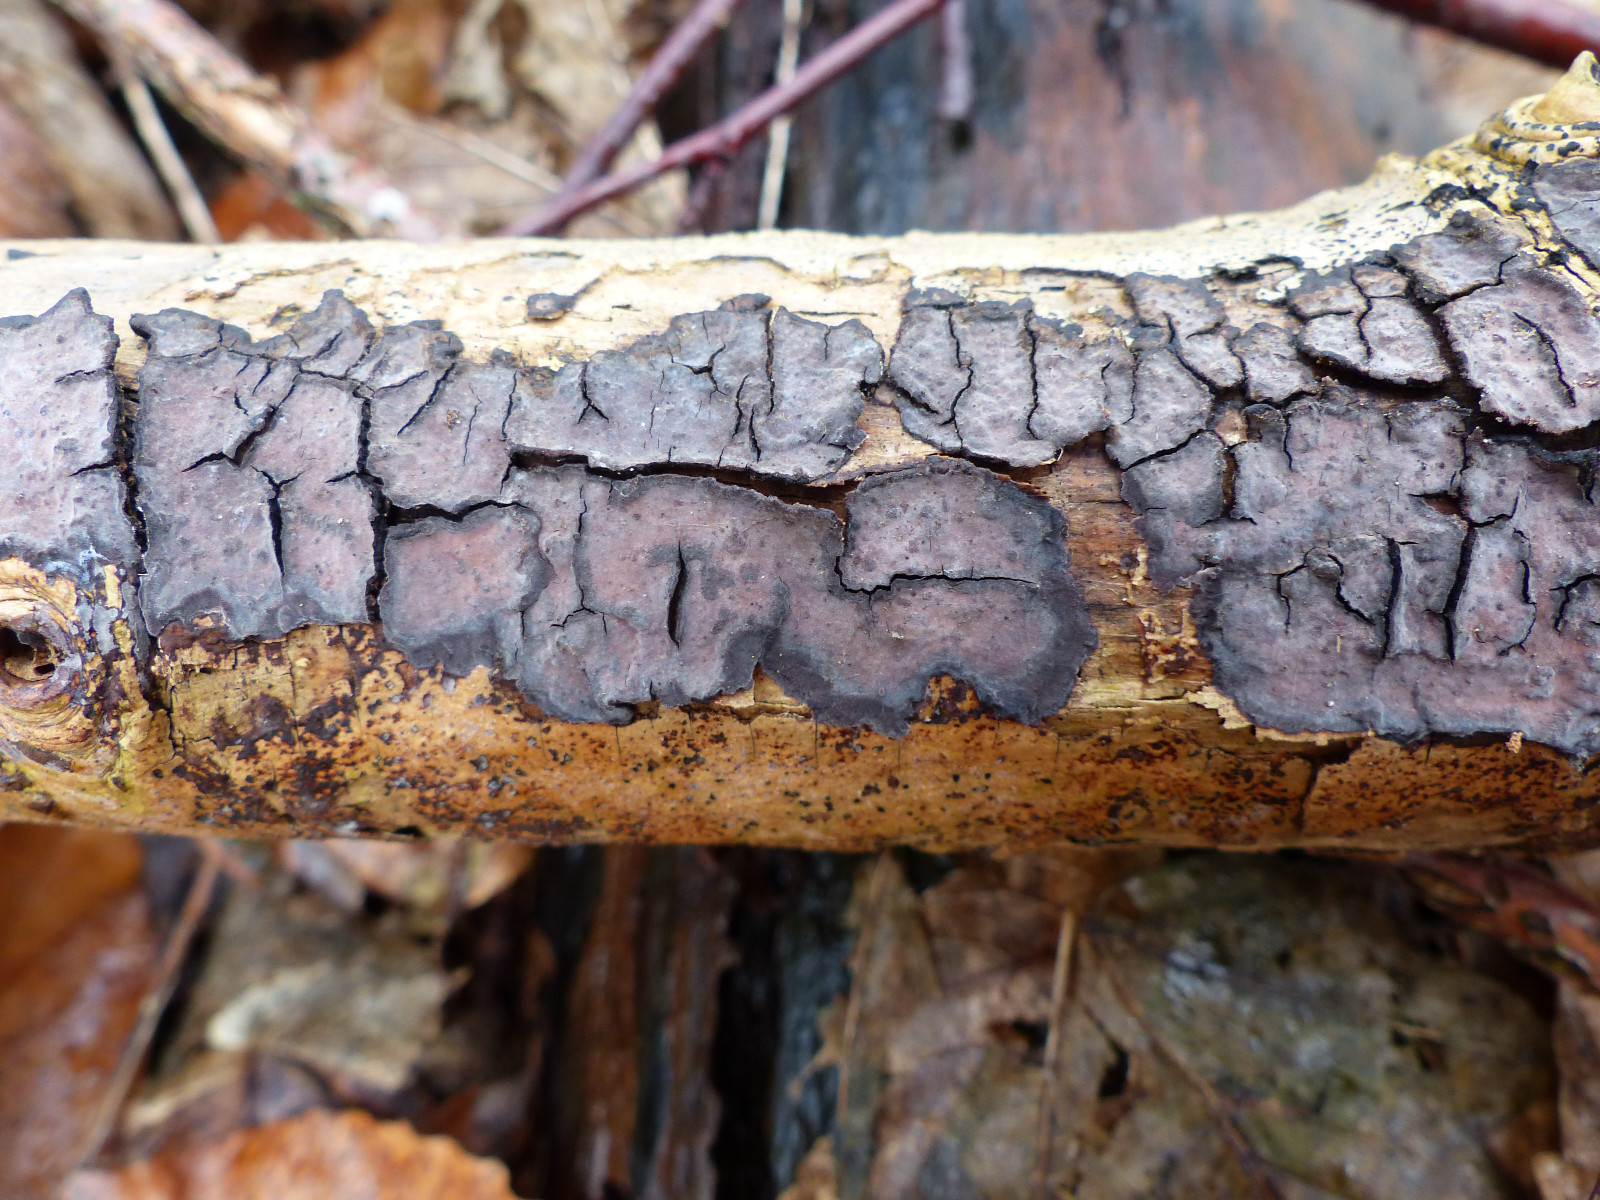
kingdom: Fungi
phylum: Basidiomycota
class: Agaricomycetes
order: Russulales
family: Peniophoraceae
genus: Peniophora
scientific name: Peniophora limitata
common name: mørkrandet voksskind
